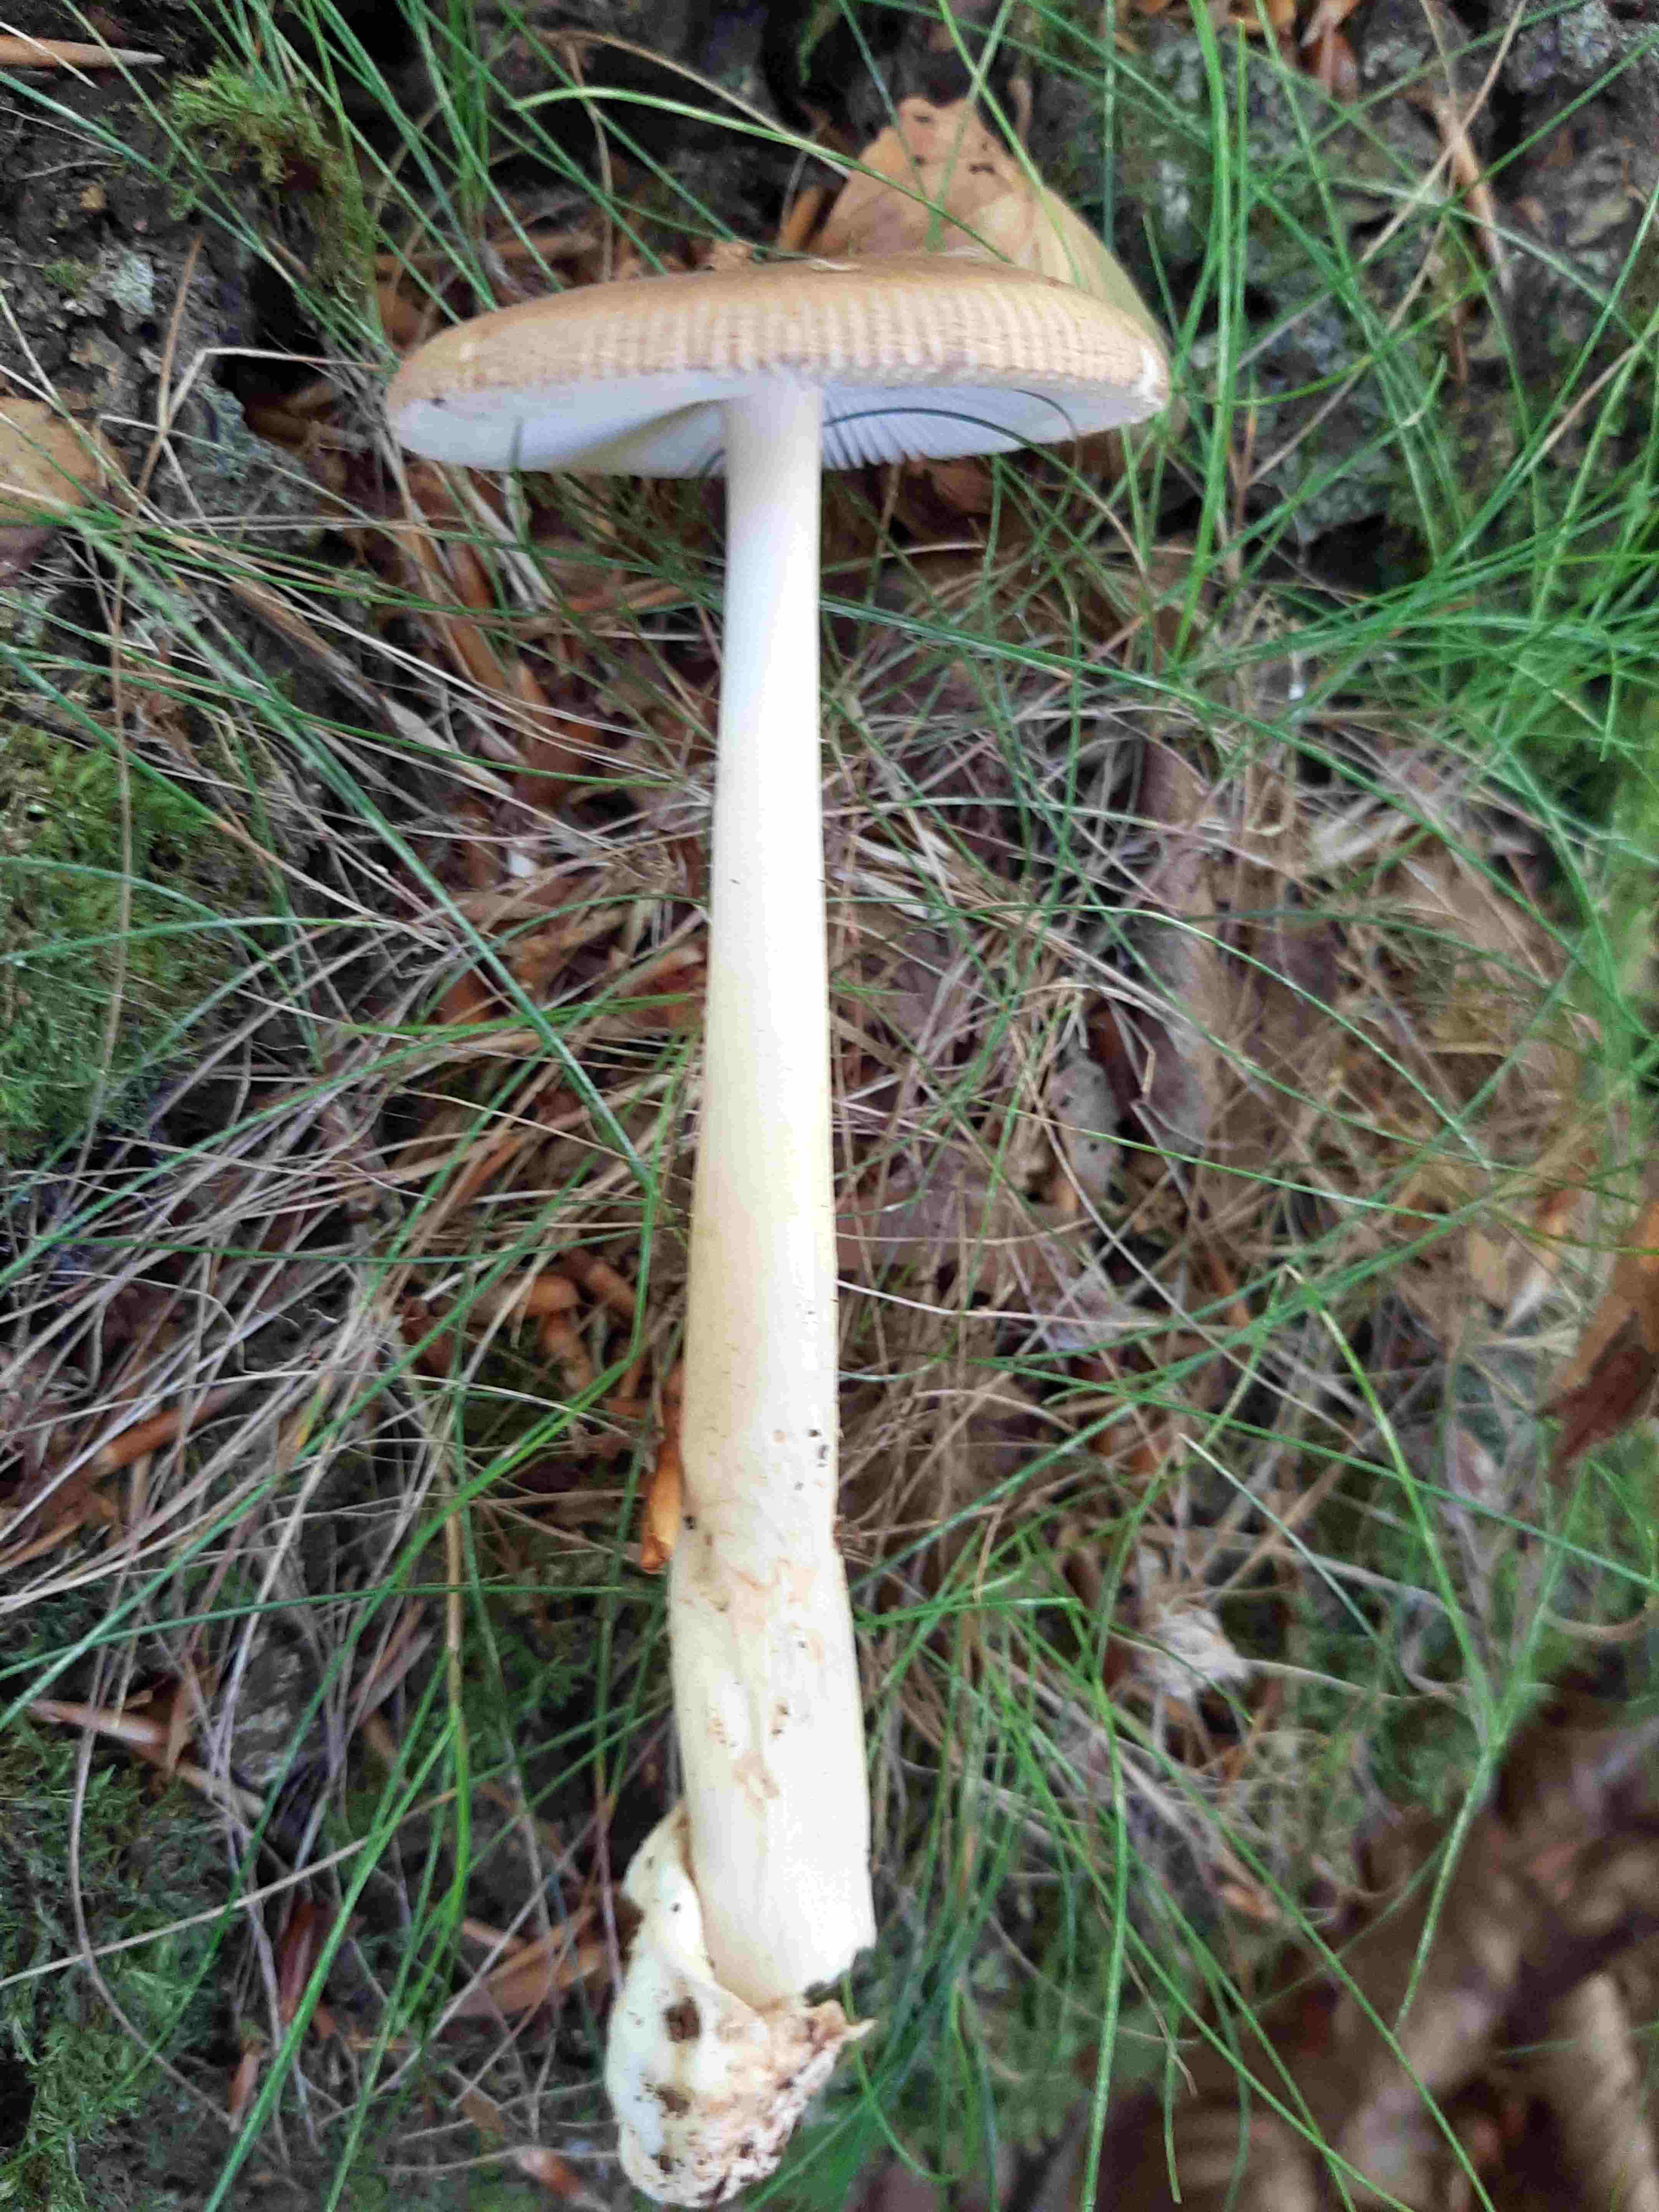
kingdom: Fungi
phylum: Basidiomycota
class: Agaricomycetes
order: Agaricales
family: Amanitaceae
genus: Amanita
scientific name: Amanita fulva
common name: brun kam-fluesvamp
